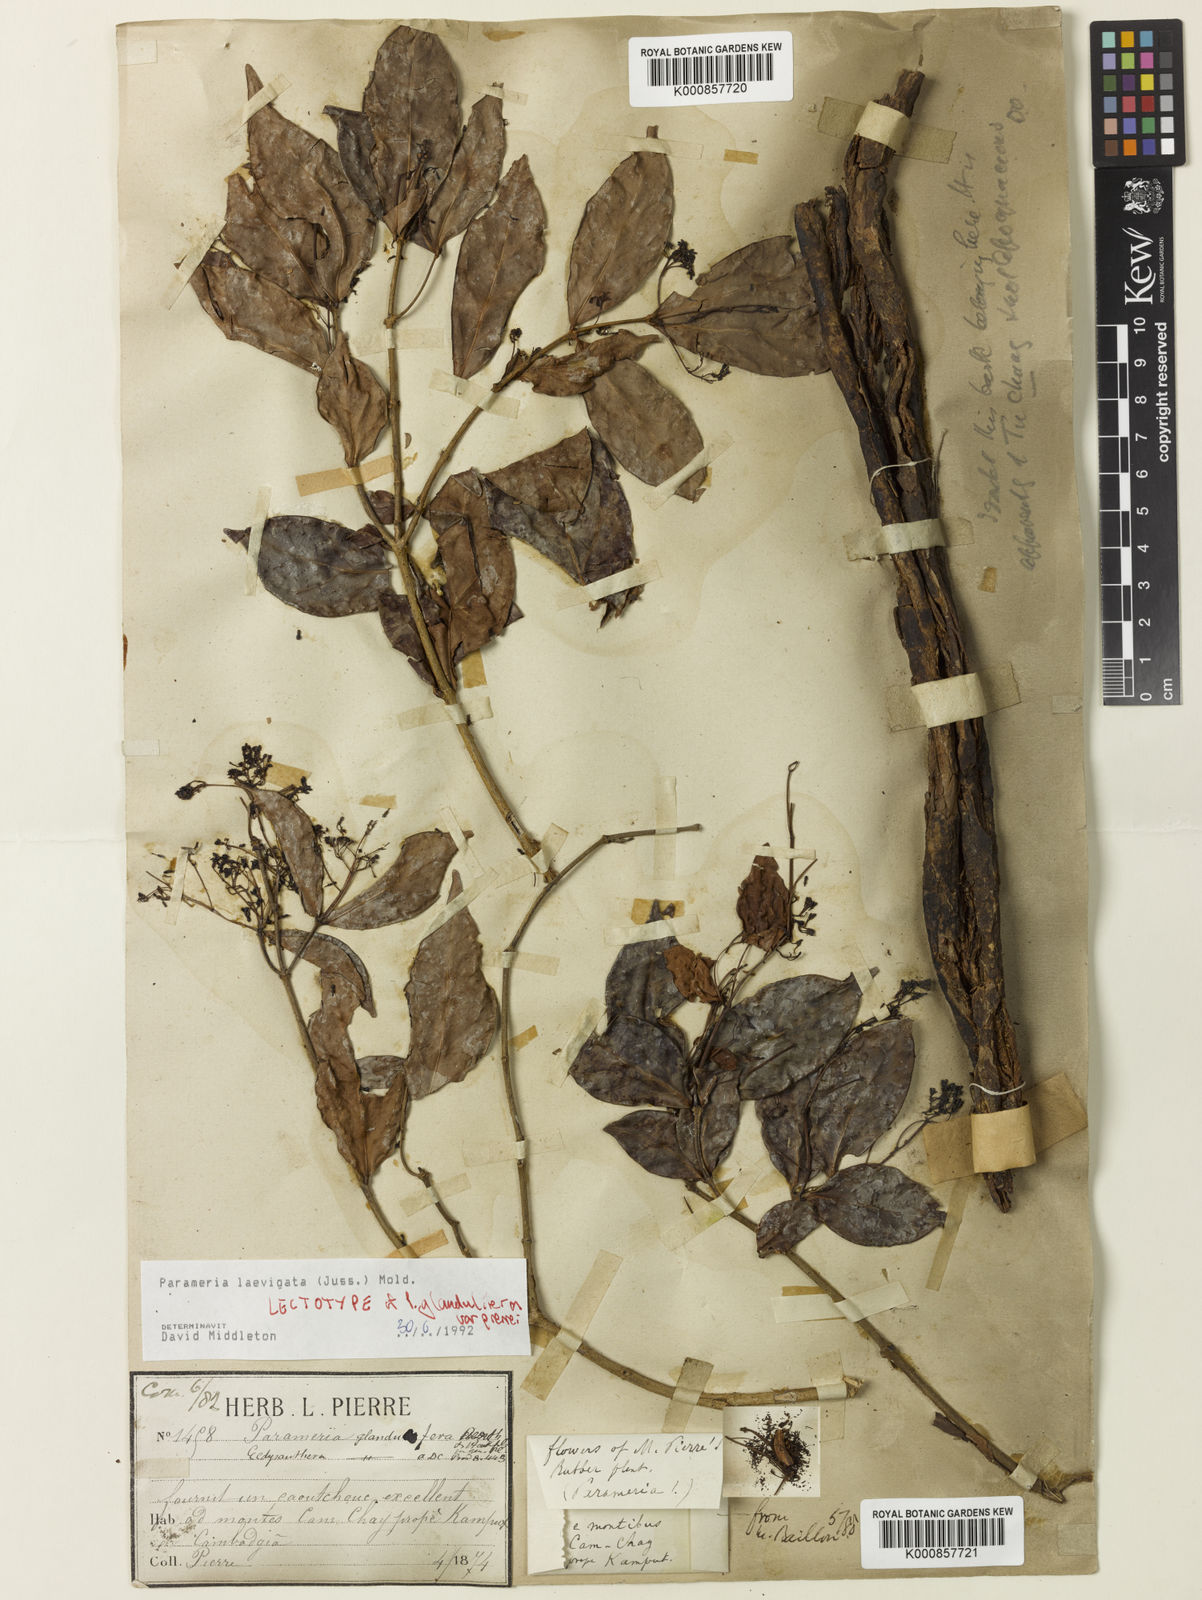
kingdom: Plantae
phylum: Tracheophyta
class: Magnoliopsida
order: Gentianales
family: Apocynaceae
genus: Urceola
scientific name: Urceola laevigata
